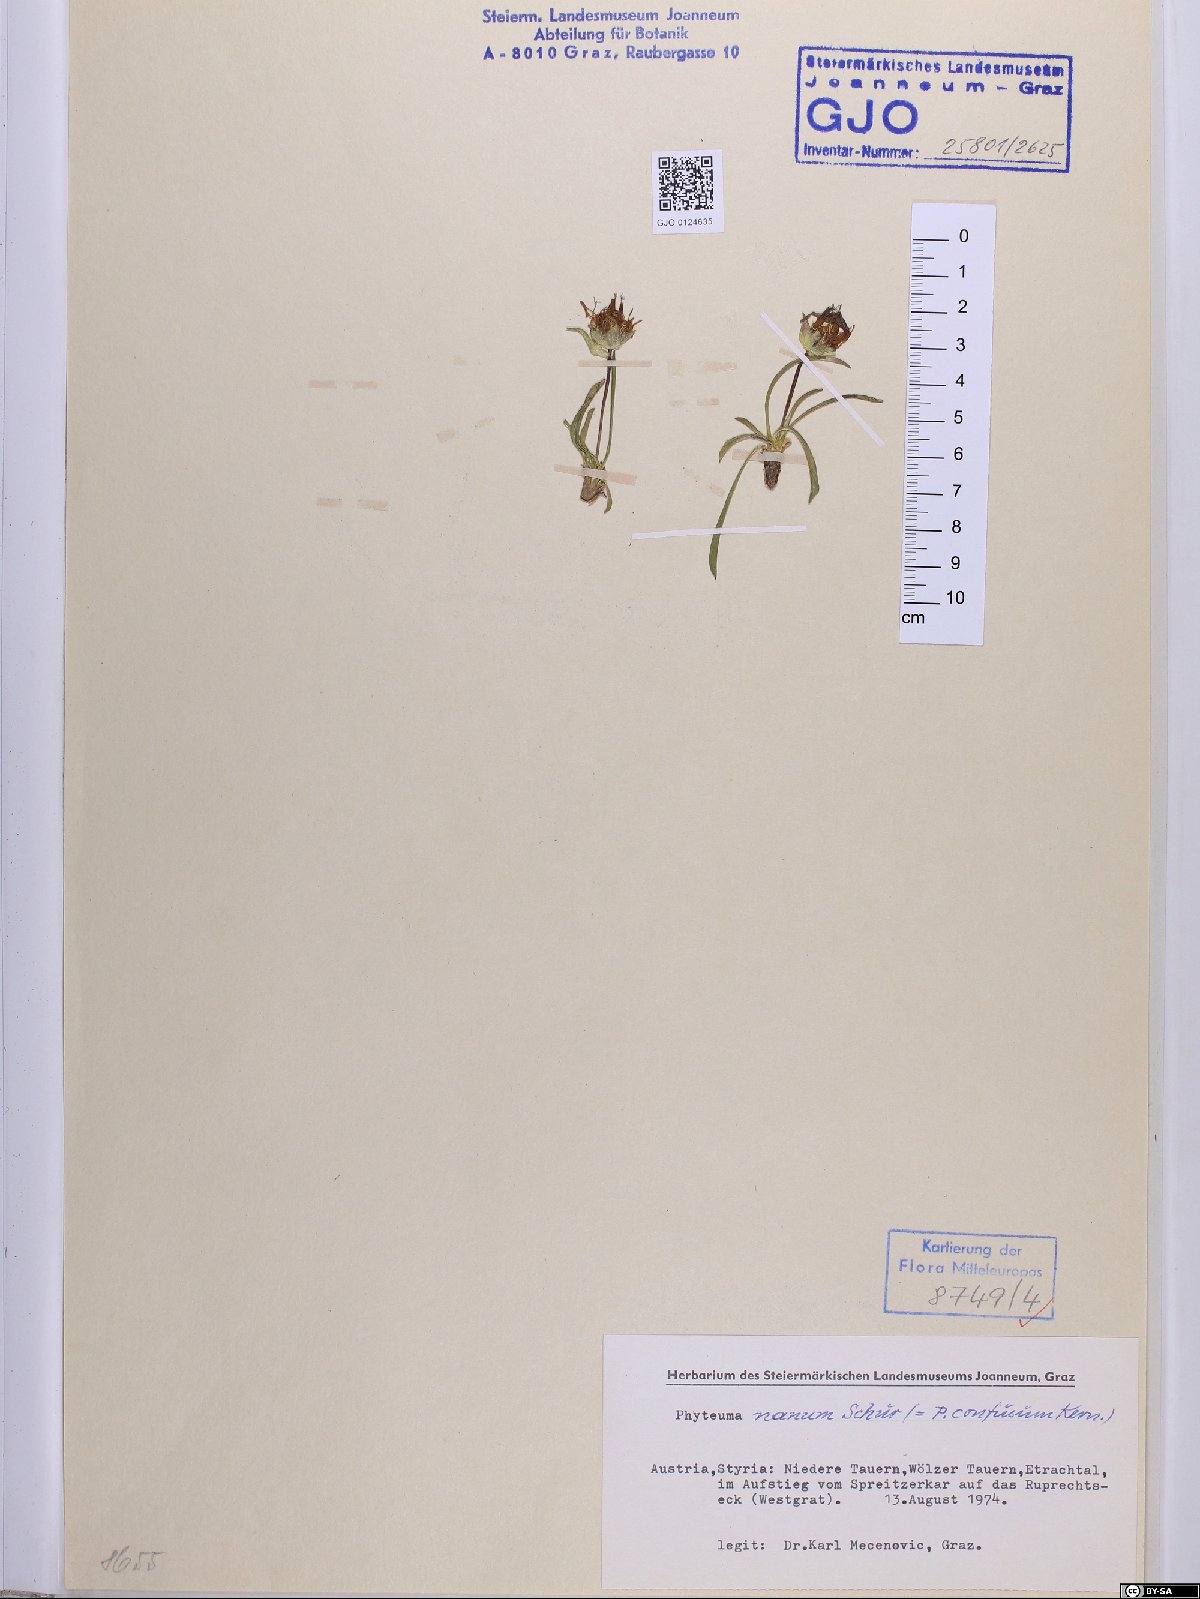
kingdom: Plantae
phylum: Tracheophyta
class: Magnoliopsida
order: Asterales
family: Campanulaceae
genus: Phyteuma
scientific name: Phyteuma globulariifolium
